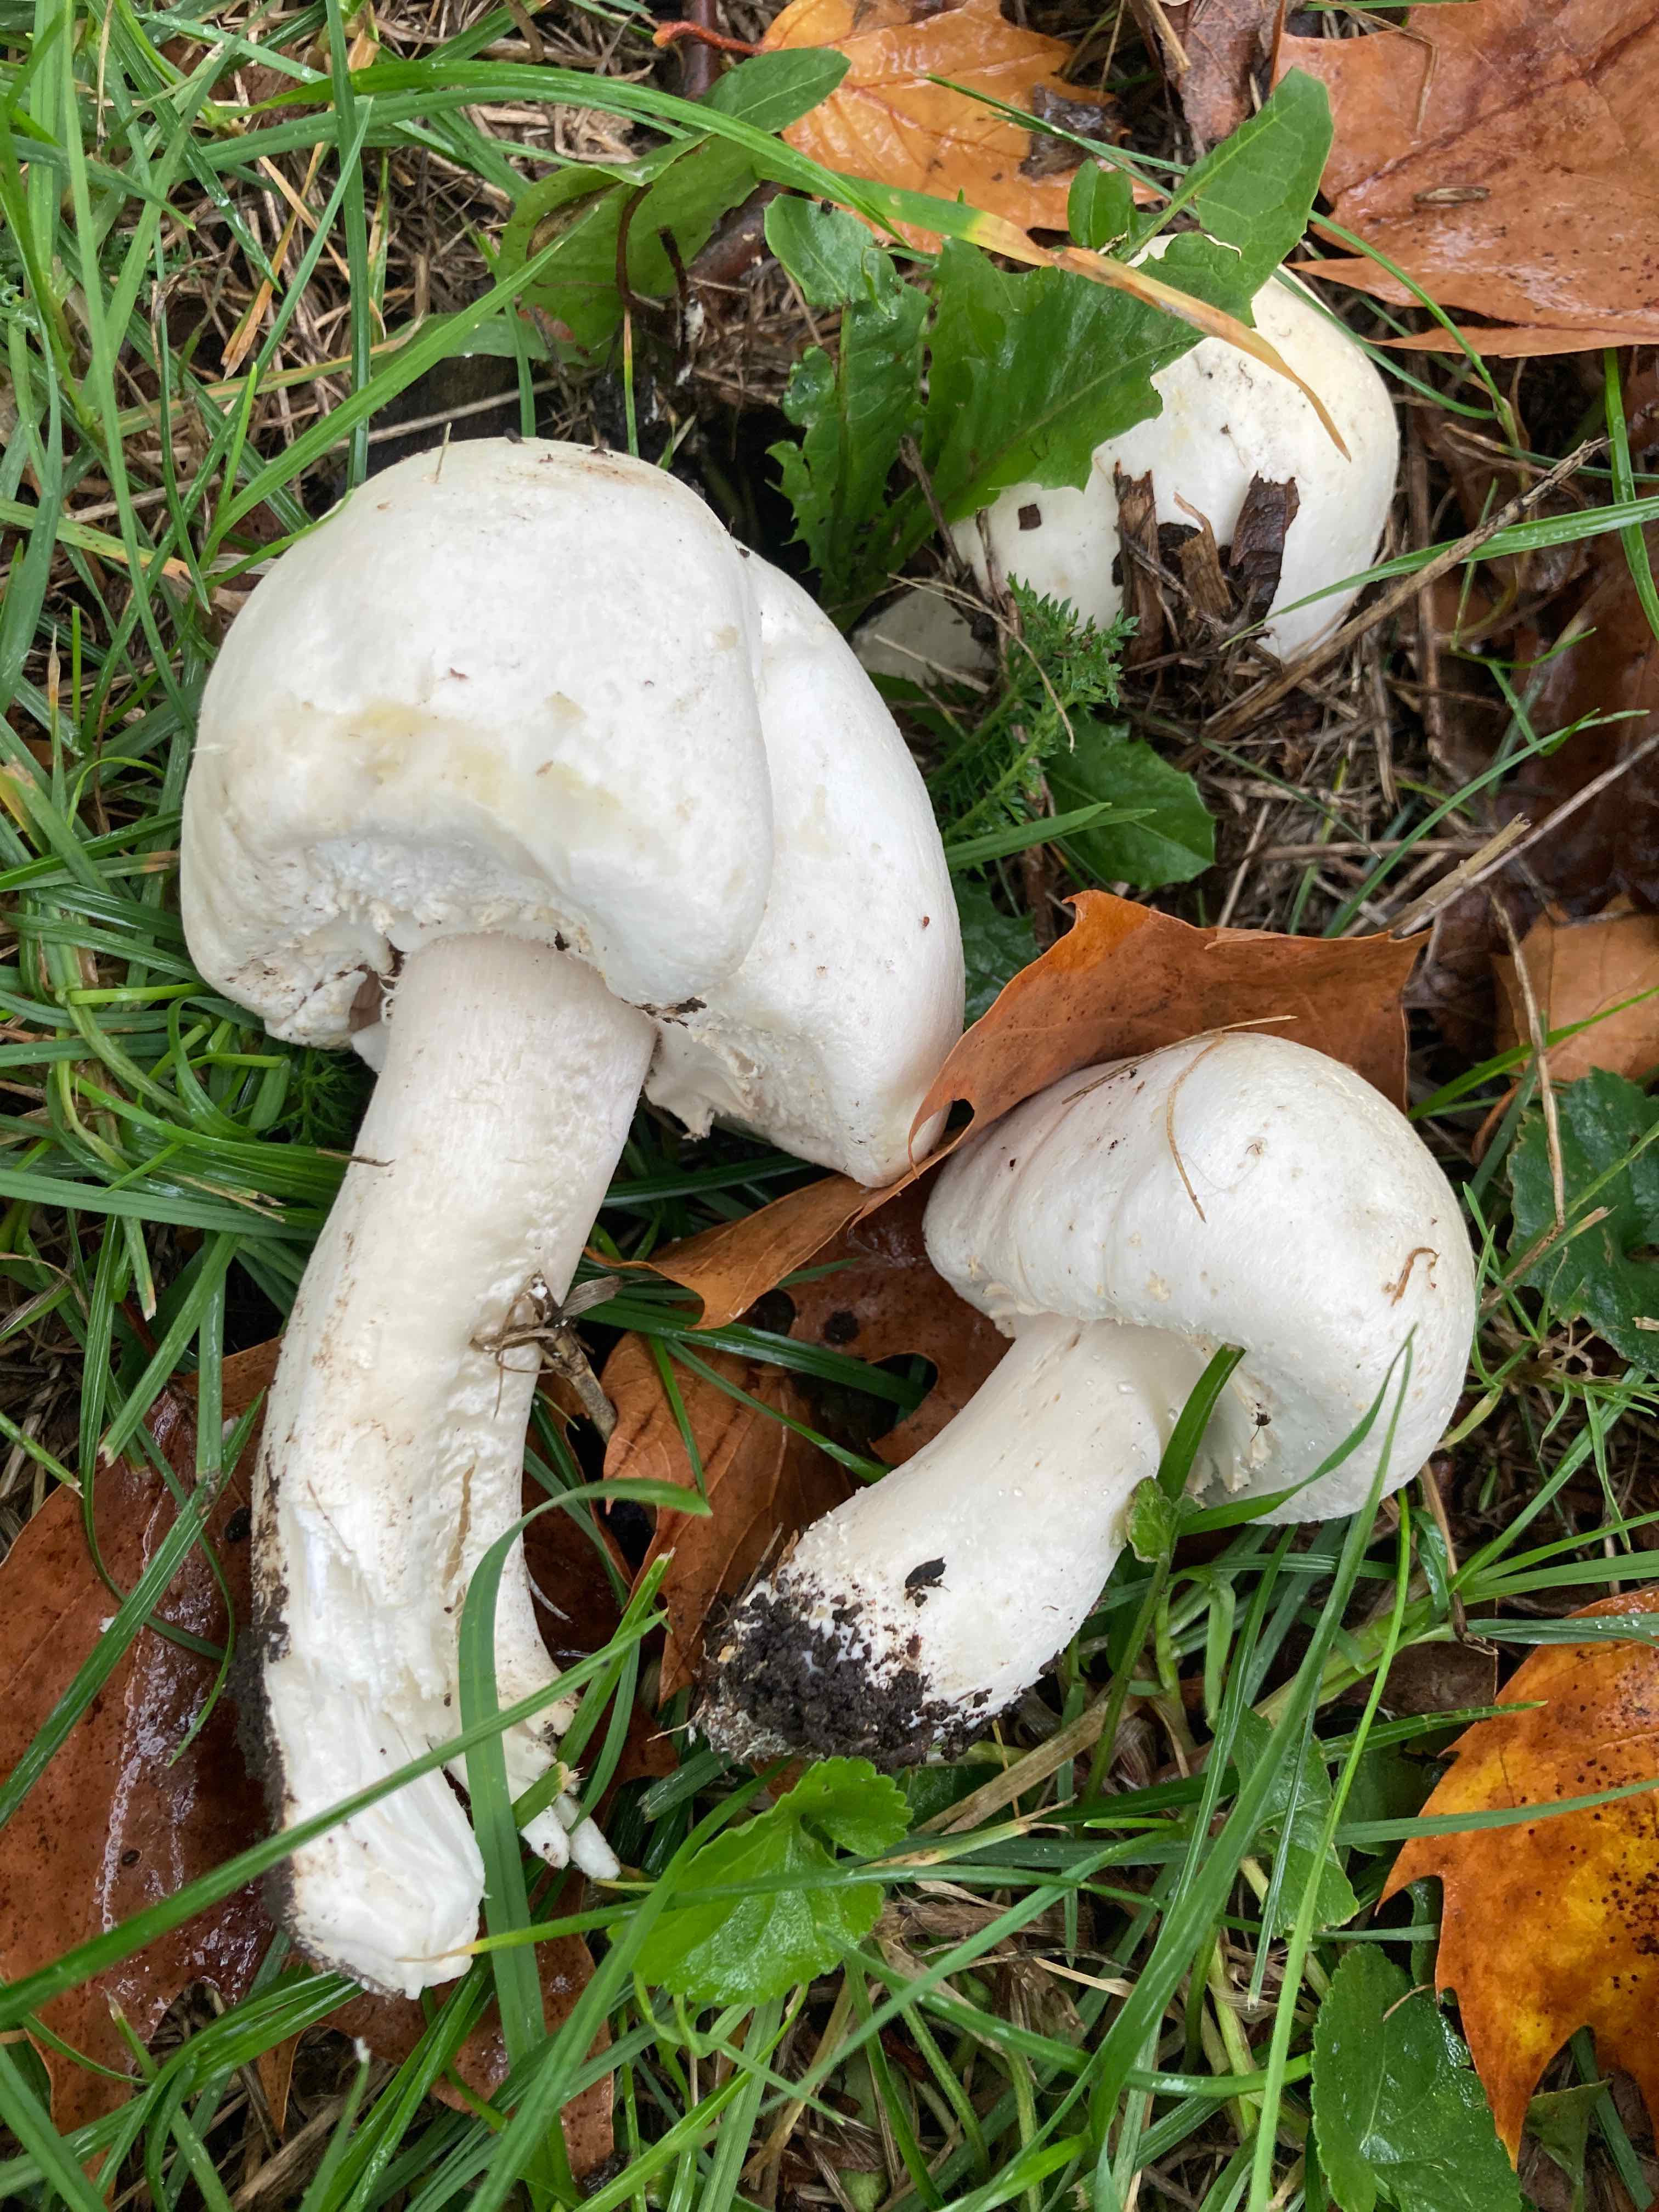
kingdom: Fungi
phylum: Basidiomycota
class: Agaricomycetes
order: Agaricales
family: Agaricaceae
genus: Agaricus
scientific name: Agaricus arvensis
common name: ager-champignon
